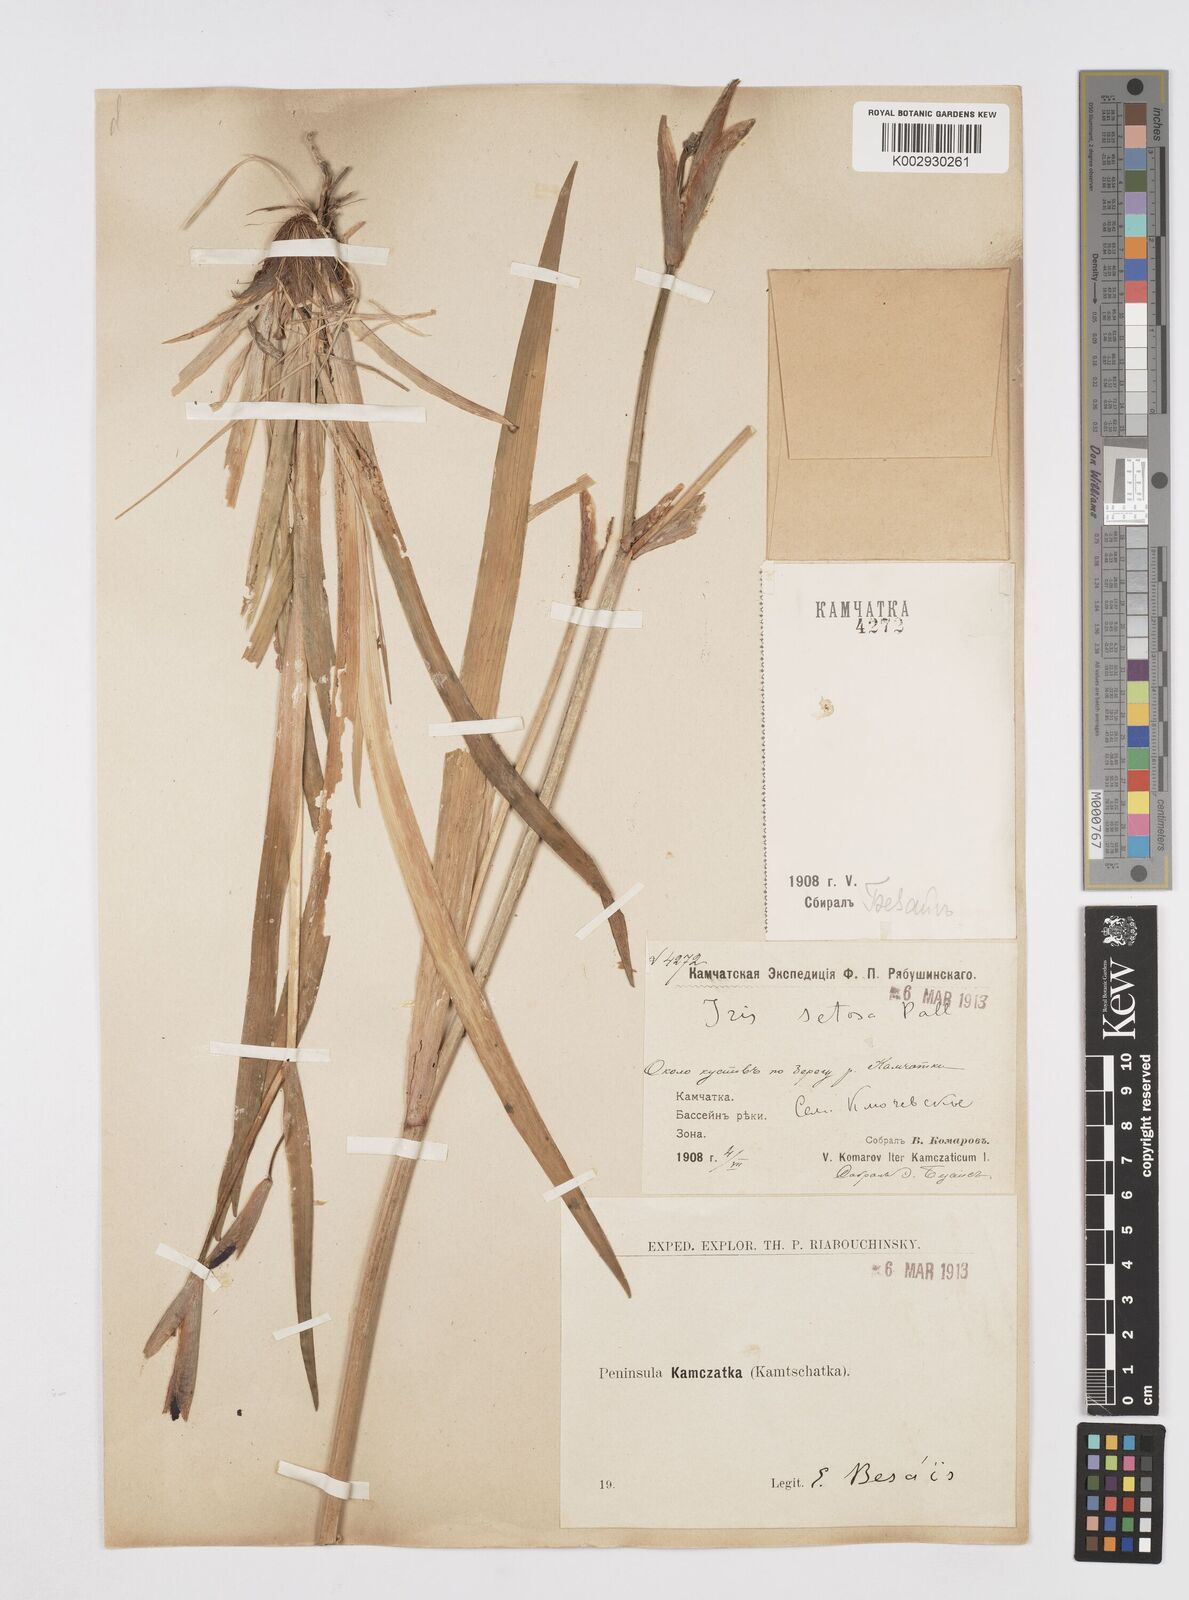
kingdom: Plantae
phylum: Tracheophyta
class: Liliopsida
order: Asparagales
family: Iridaceae
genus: Iris
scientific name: Iris setosa
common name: Arctic blue flag
